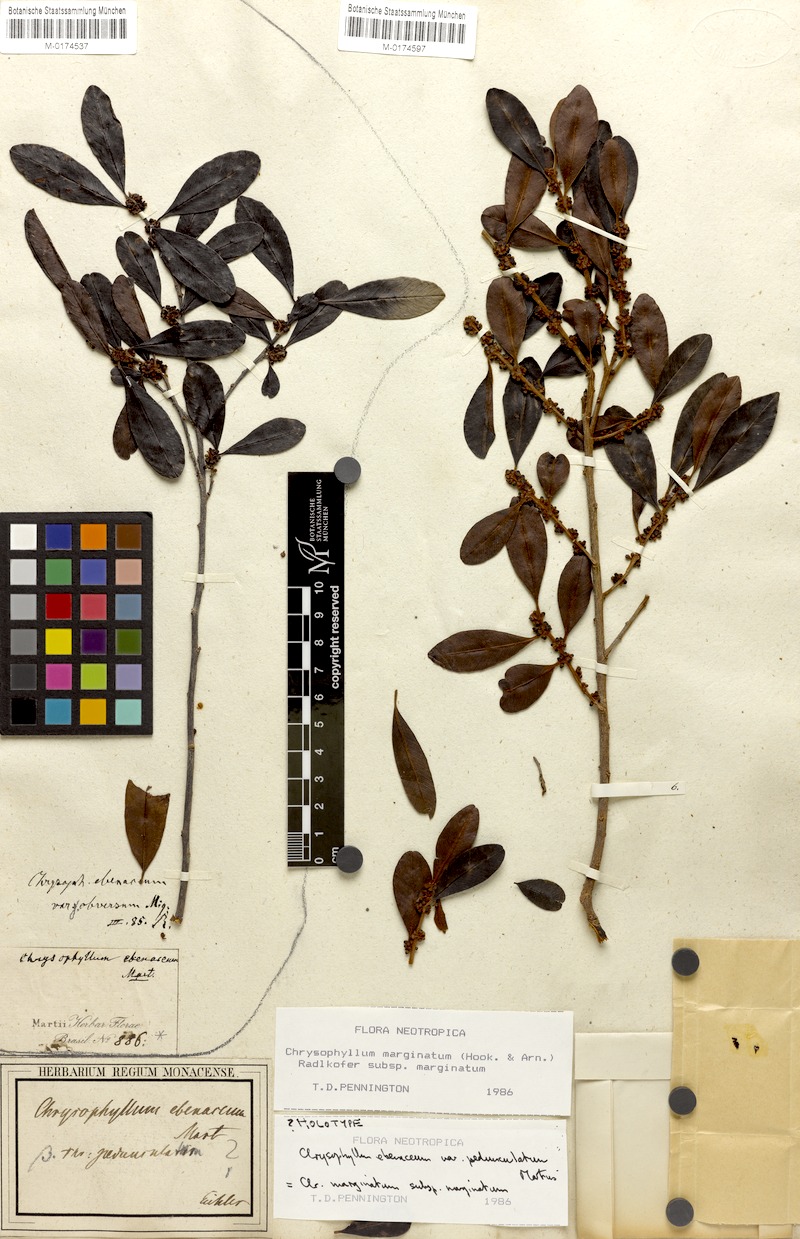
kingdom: Plantae
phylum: Tracheophyta
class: Magnoliopsida
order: Ericales
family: Sapotaceae
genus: Chrysophyllum
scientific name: Chrysophyllum marginatum
